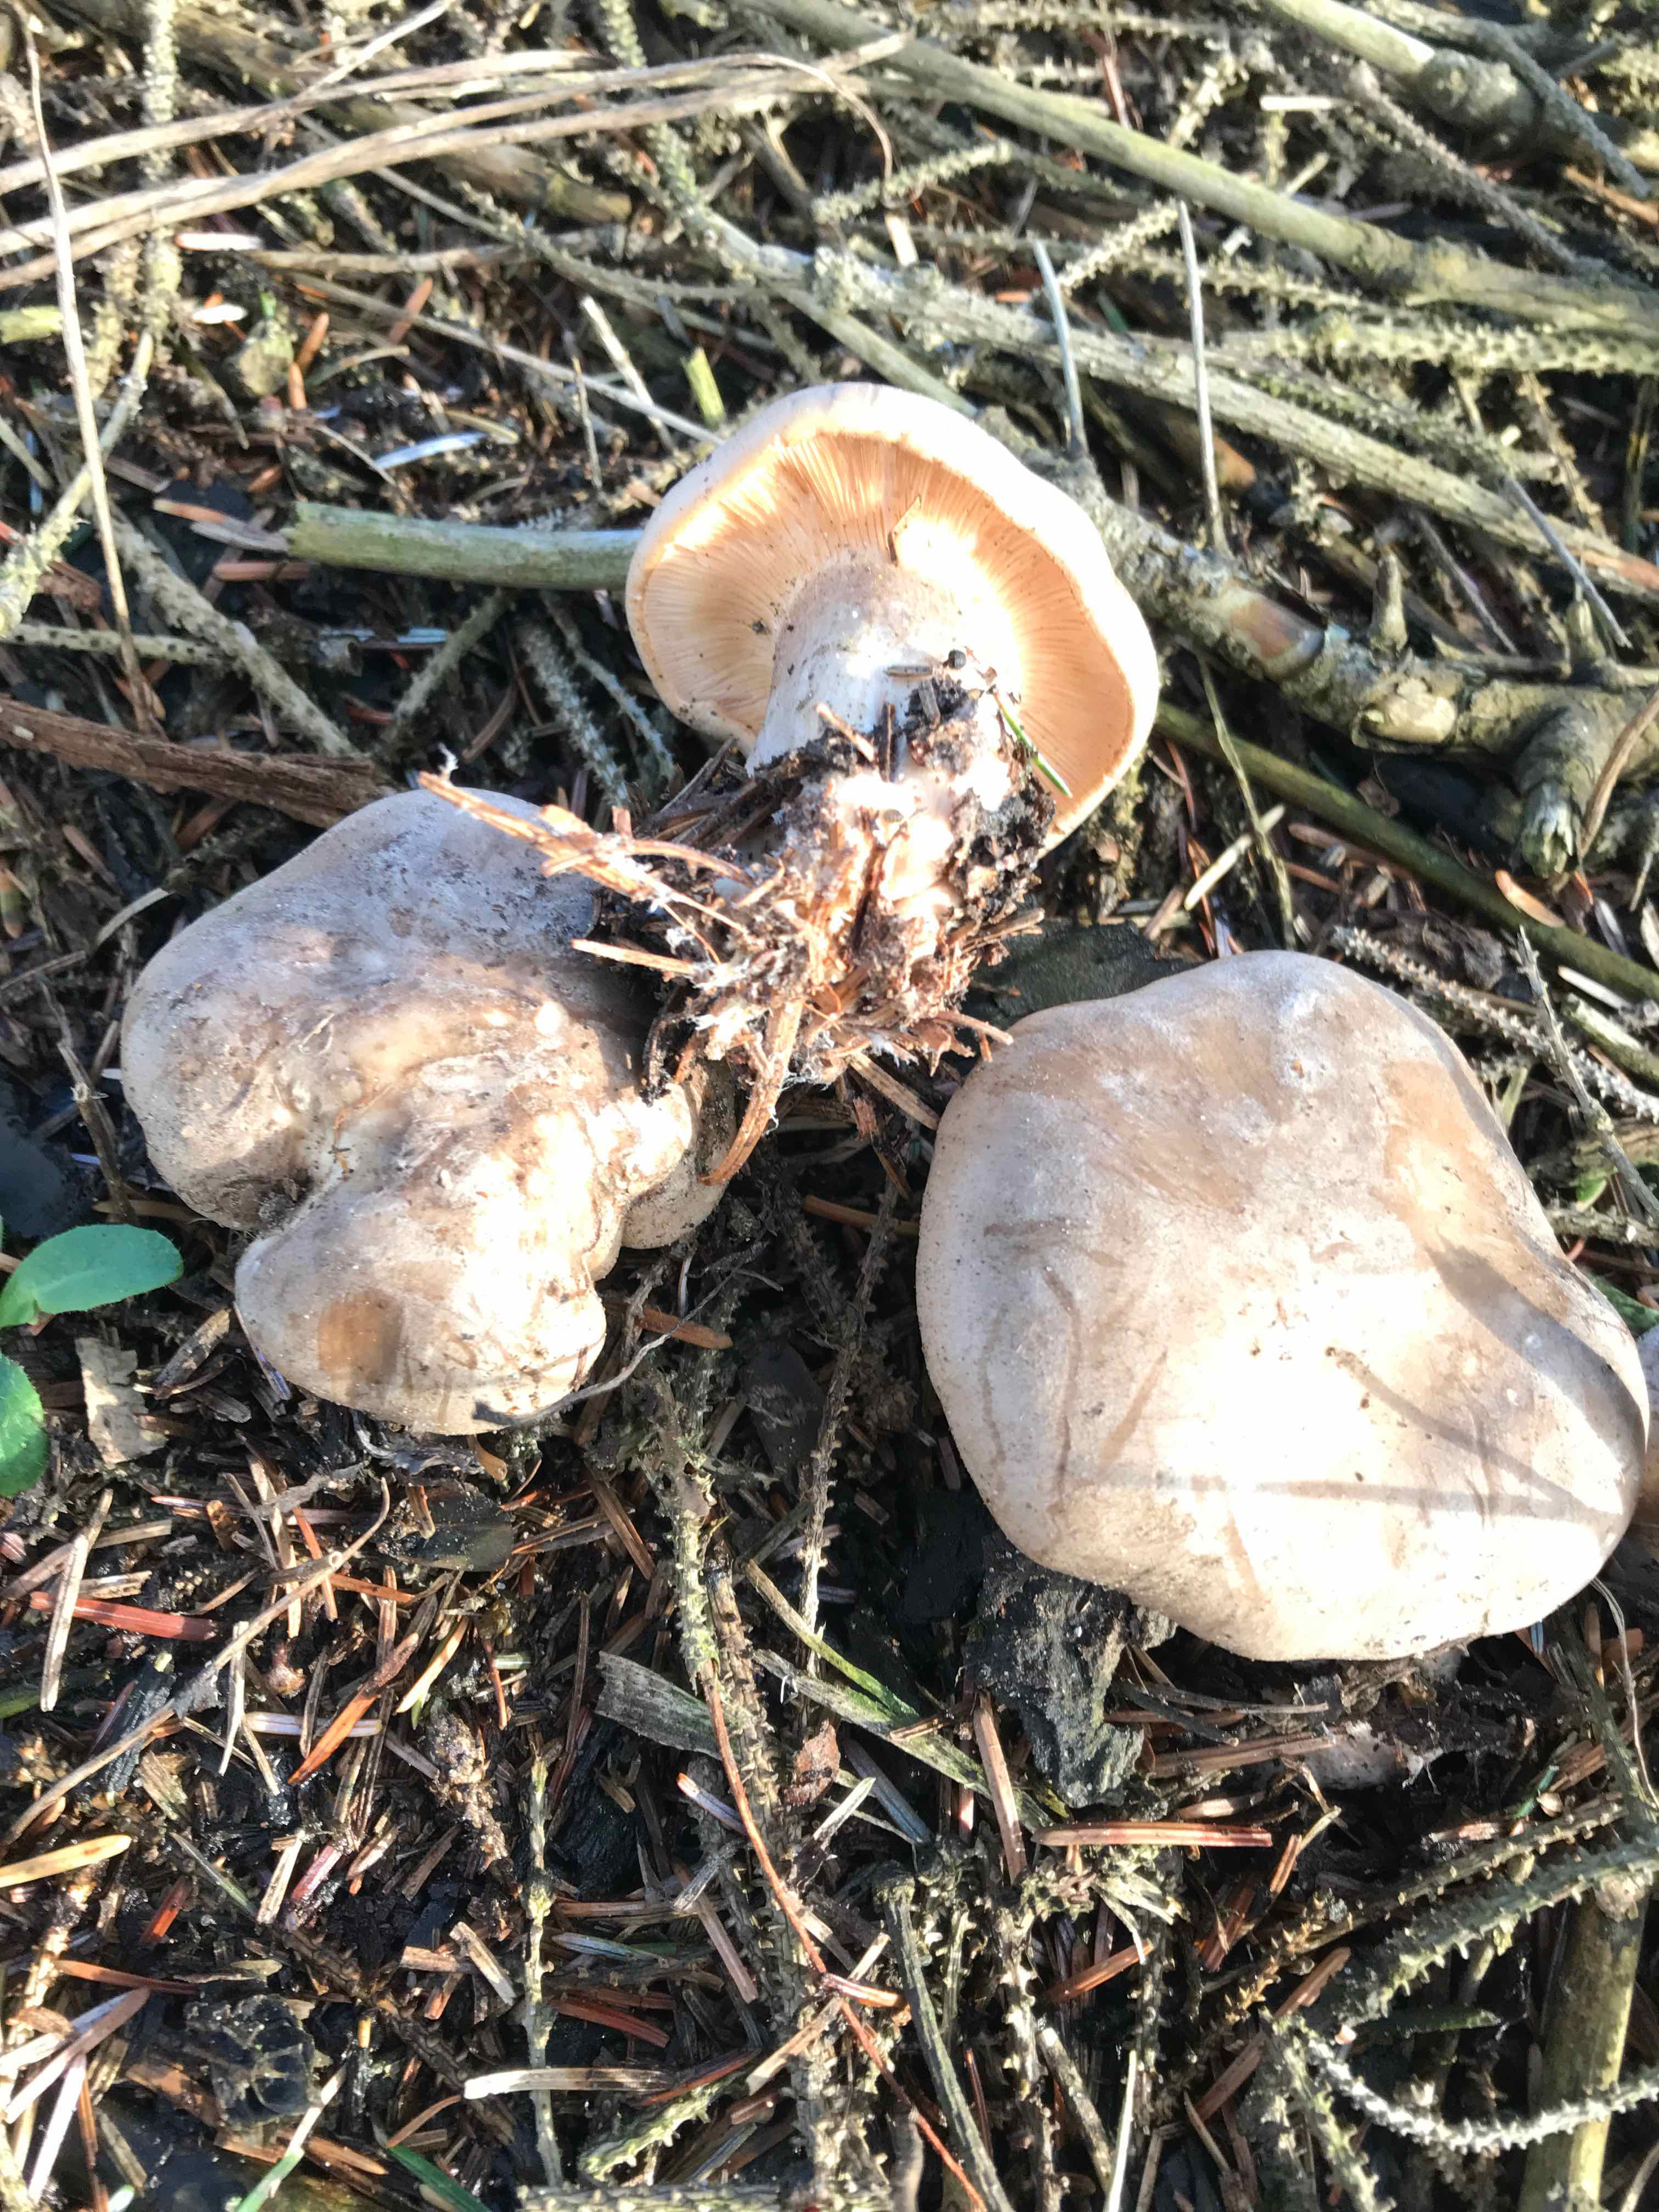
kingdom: Fungi
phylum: Basidiomycota
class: Agaricomycetes
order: Agaricales
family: Tricholomataceae
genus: Clitocybe
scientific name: Clitocybe nebularis
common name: tåge-tragthat
